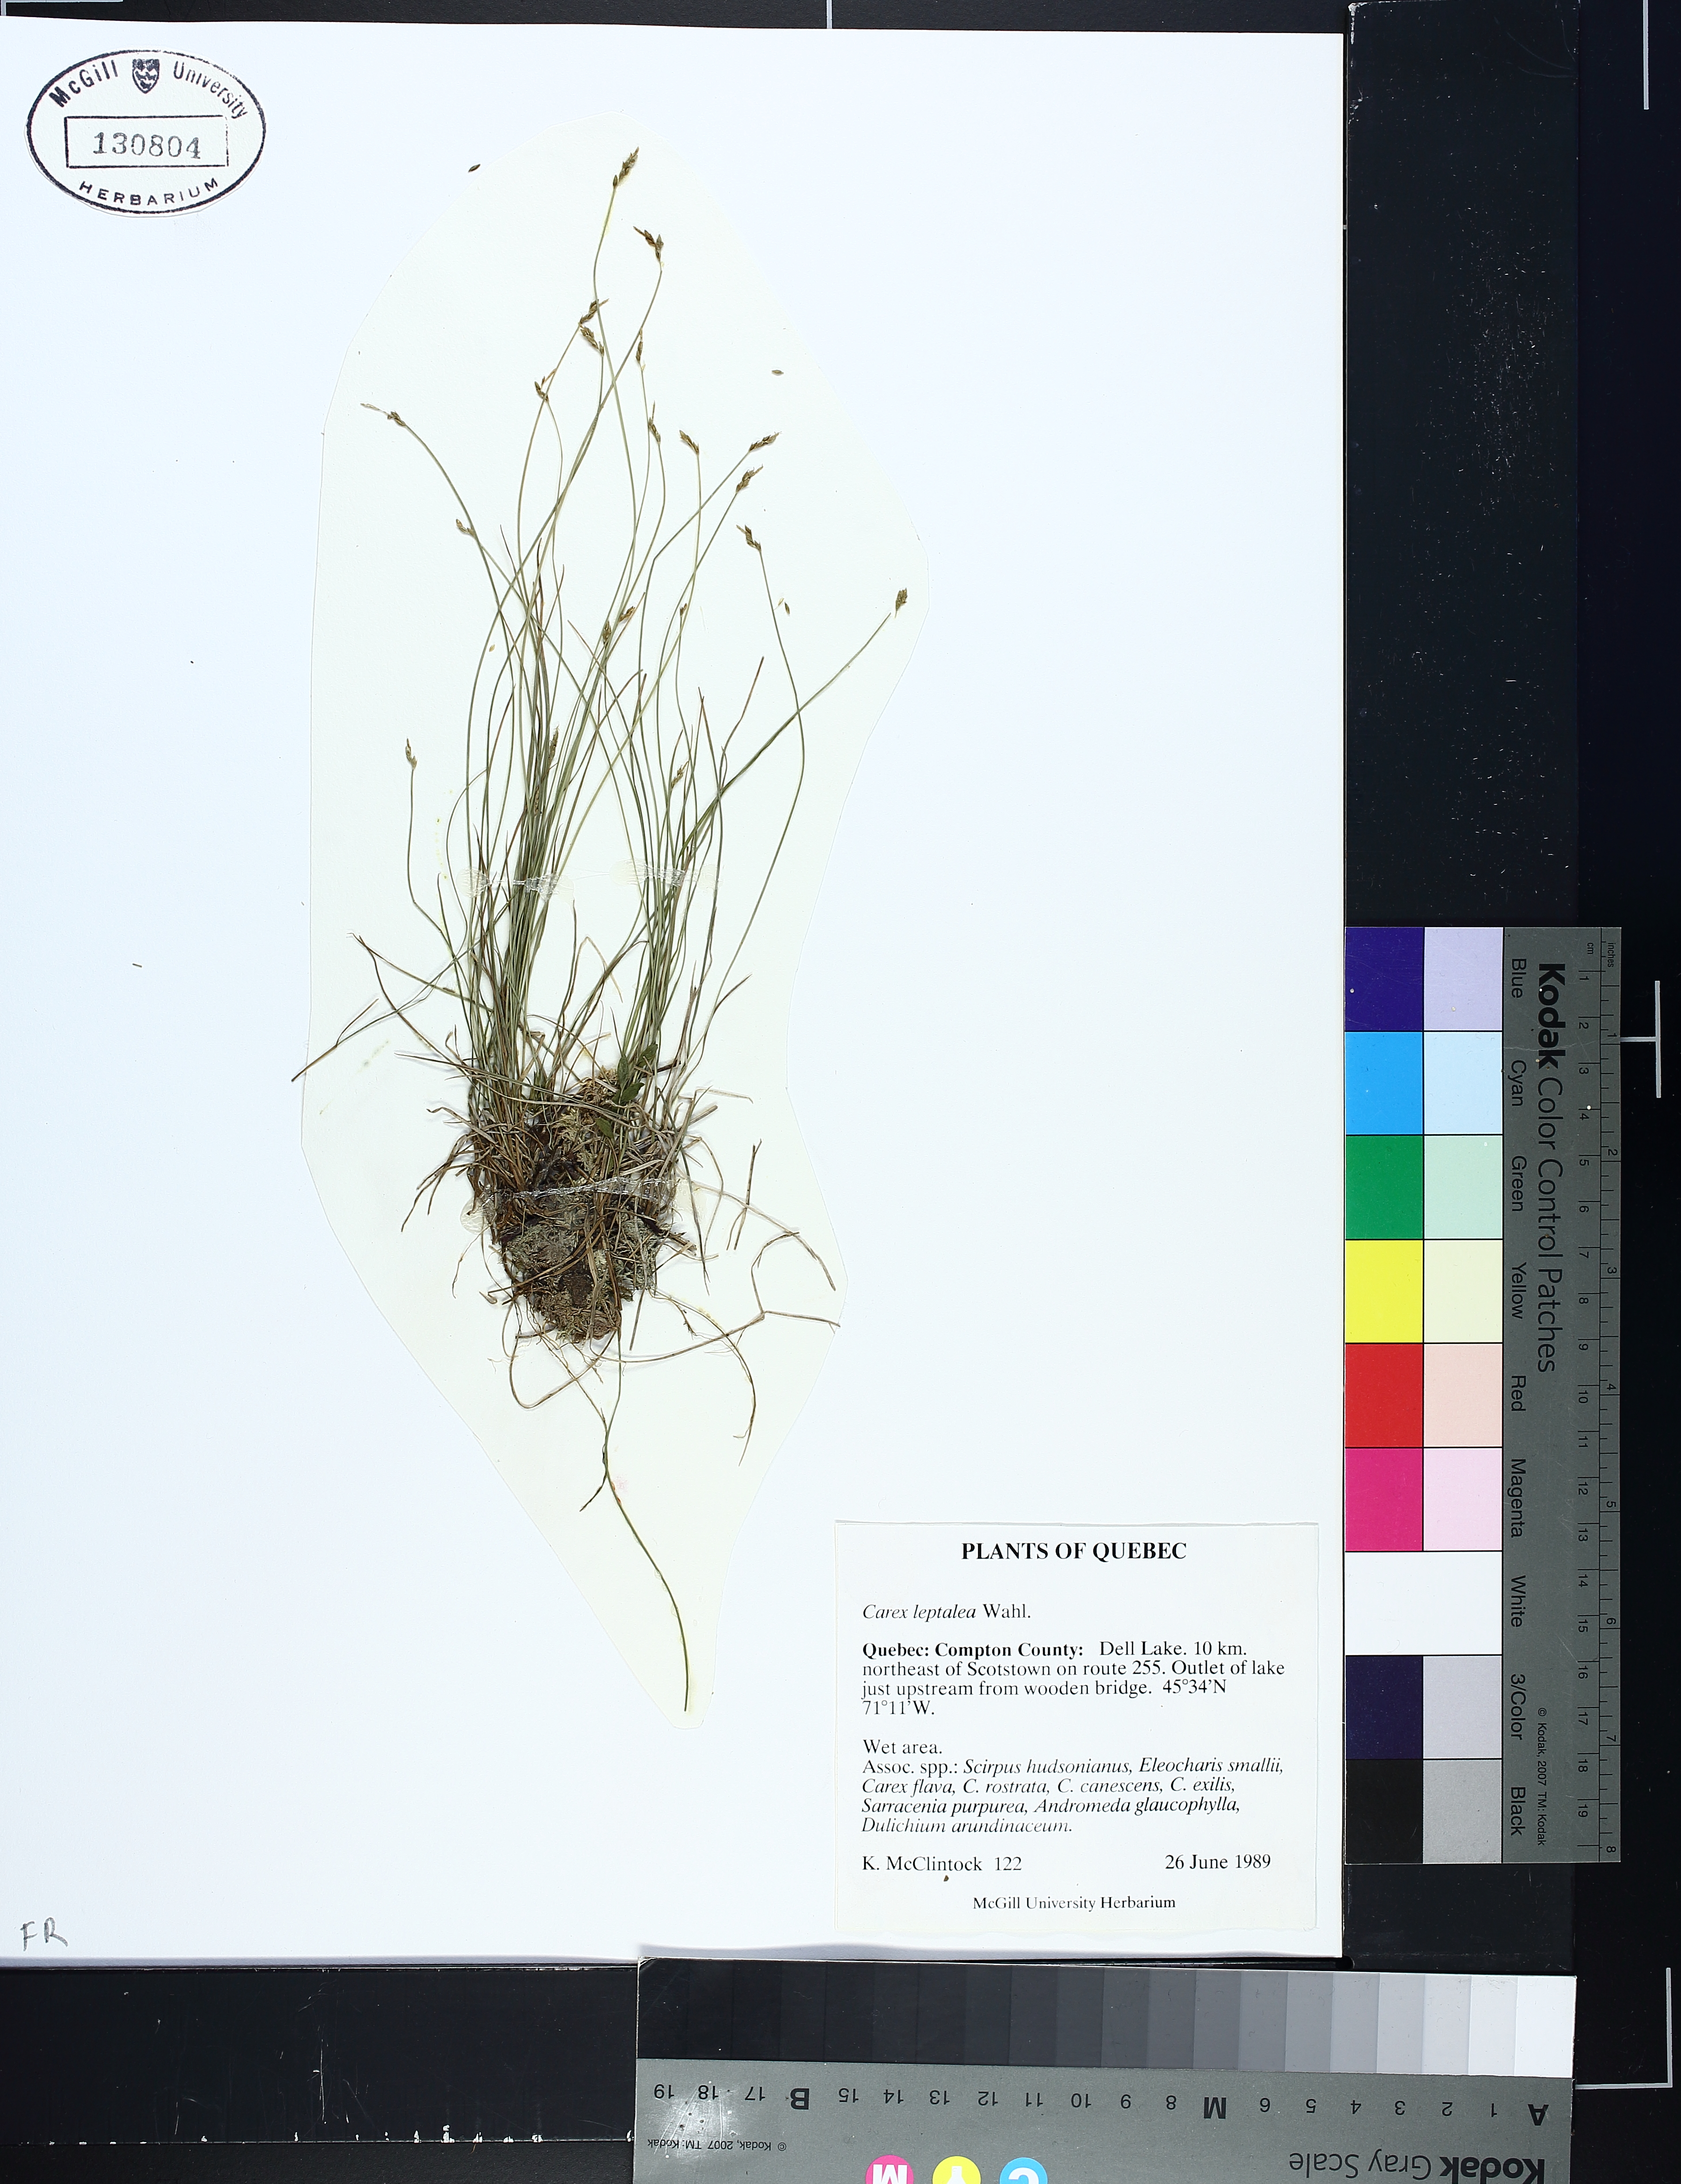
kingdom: Plantae
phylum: Tracheophyta
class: Liliopsida
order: Poales
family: Cyperaceae
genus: Carex
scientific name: Carex leptalea
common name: Bristly-stalked sedge
